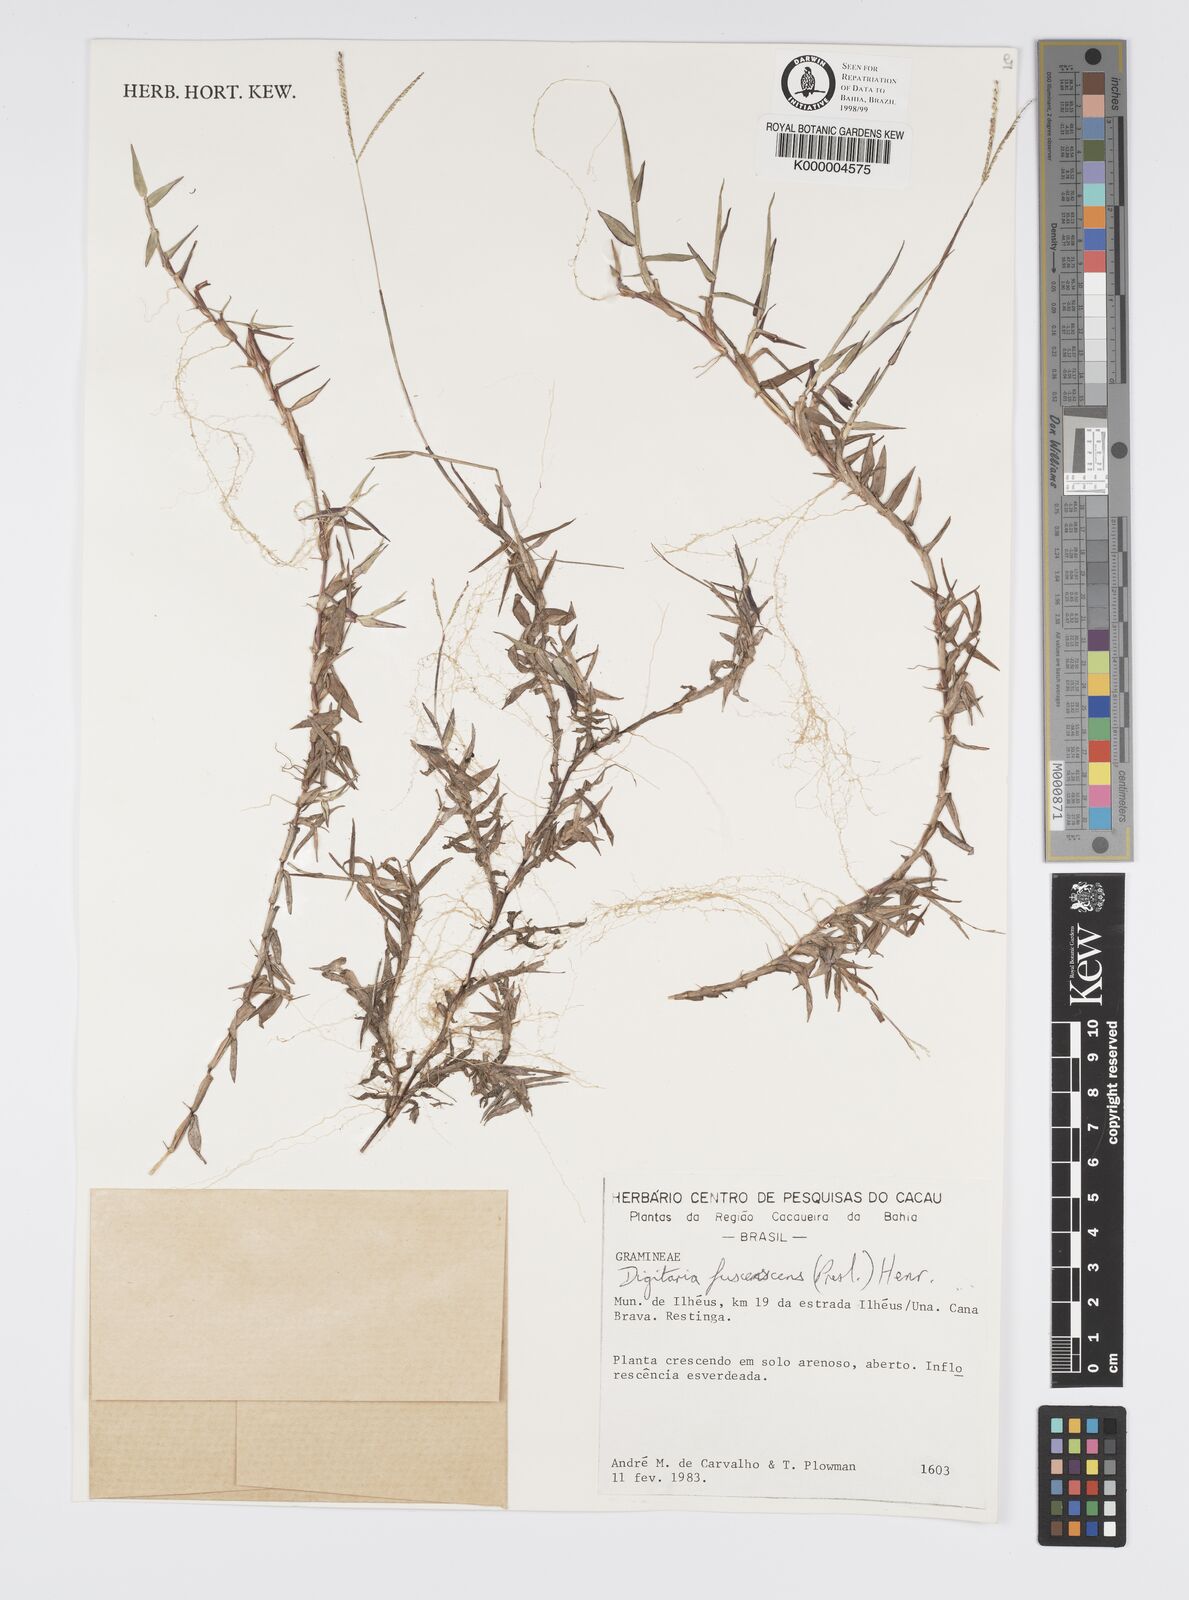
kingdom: Plantae
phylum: Tracheophyta
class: Liliopsida
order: Poales
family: Poaceae
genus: Digitaria
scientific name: Digitaria fuscescens
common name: Yellow crabgrass
